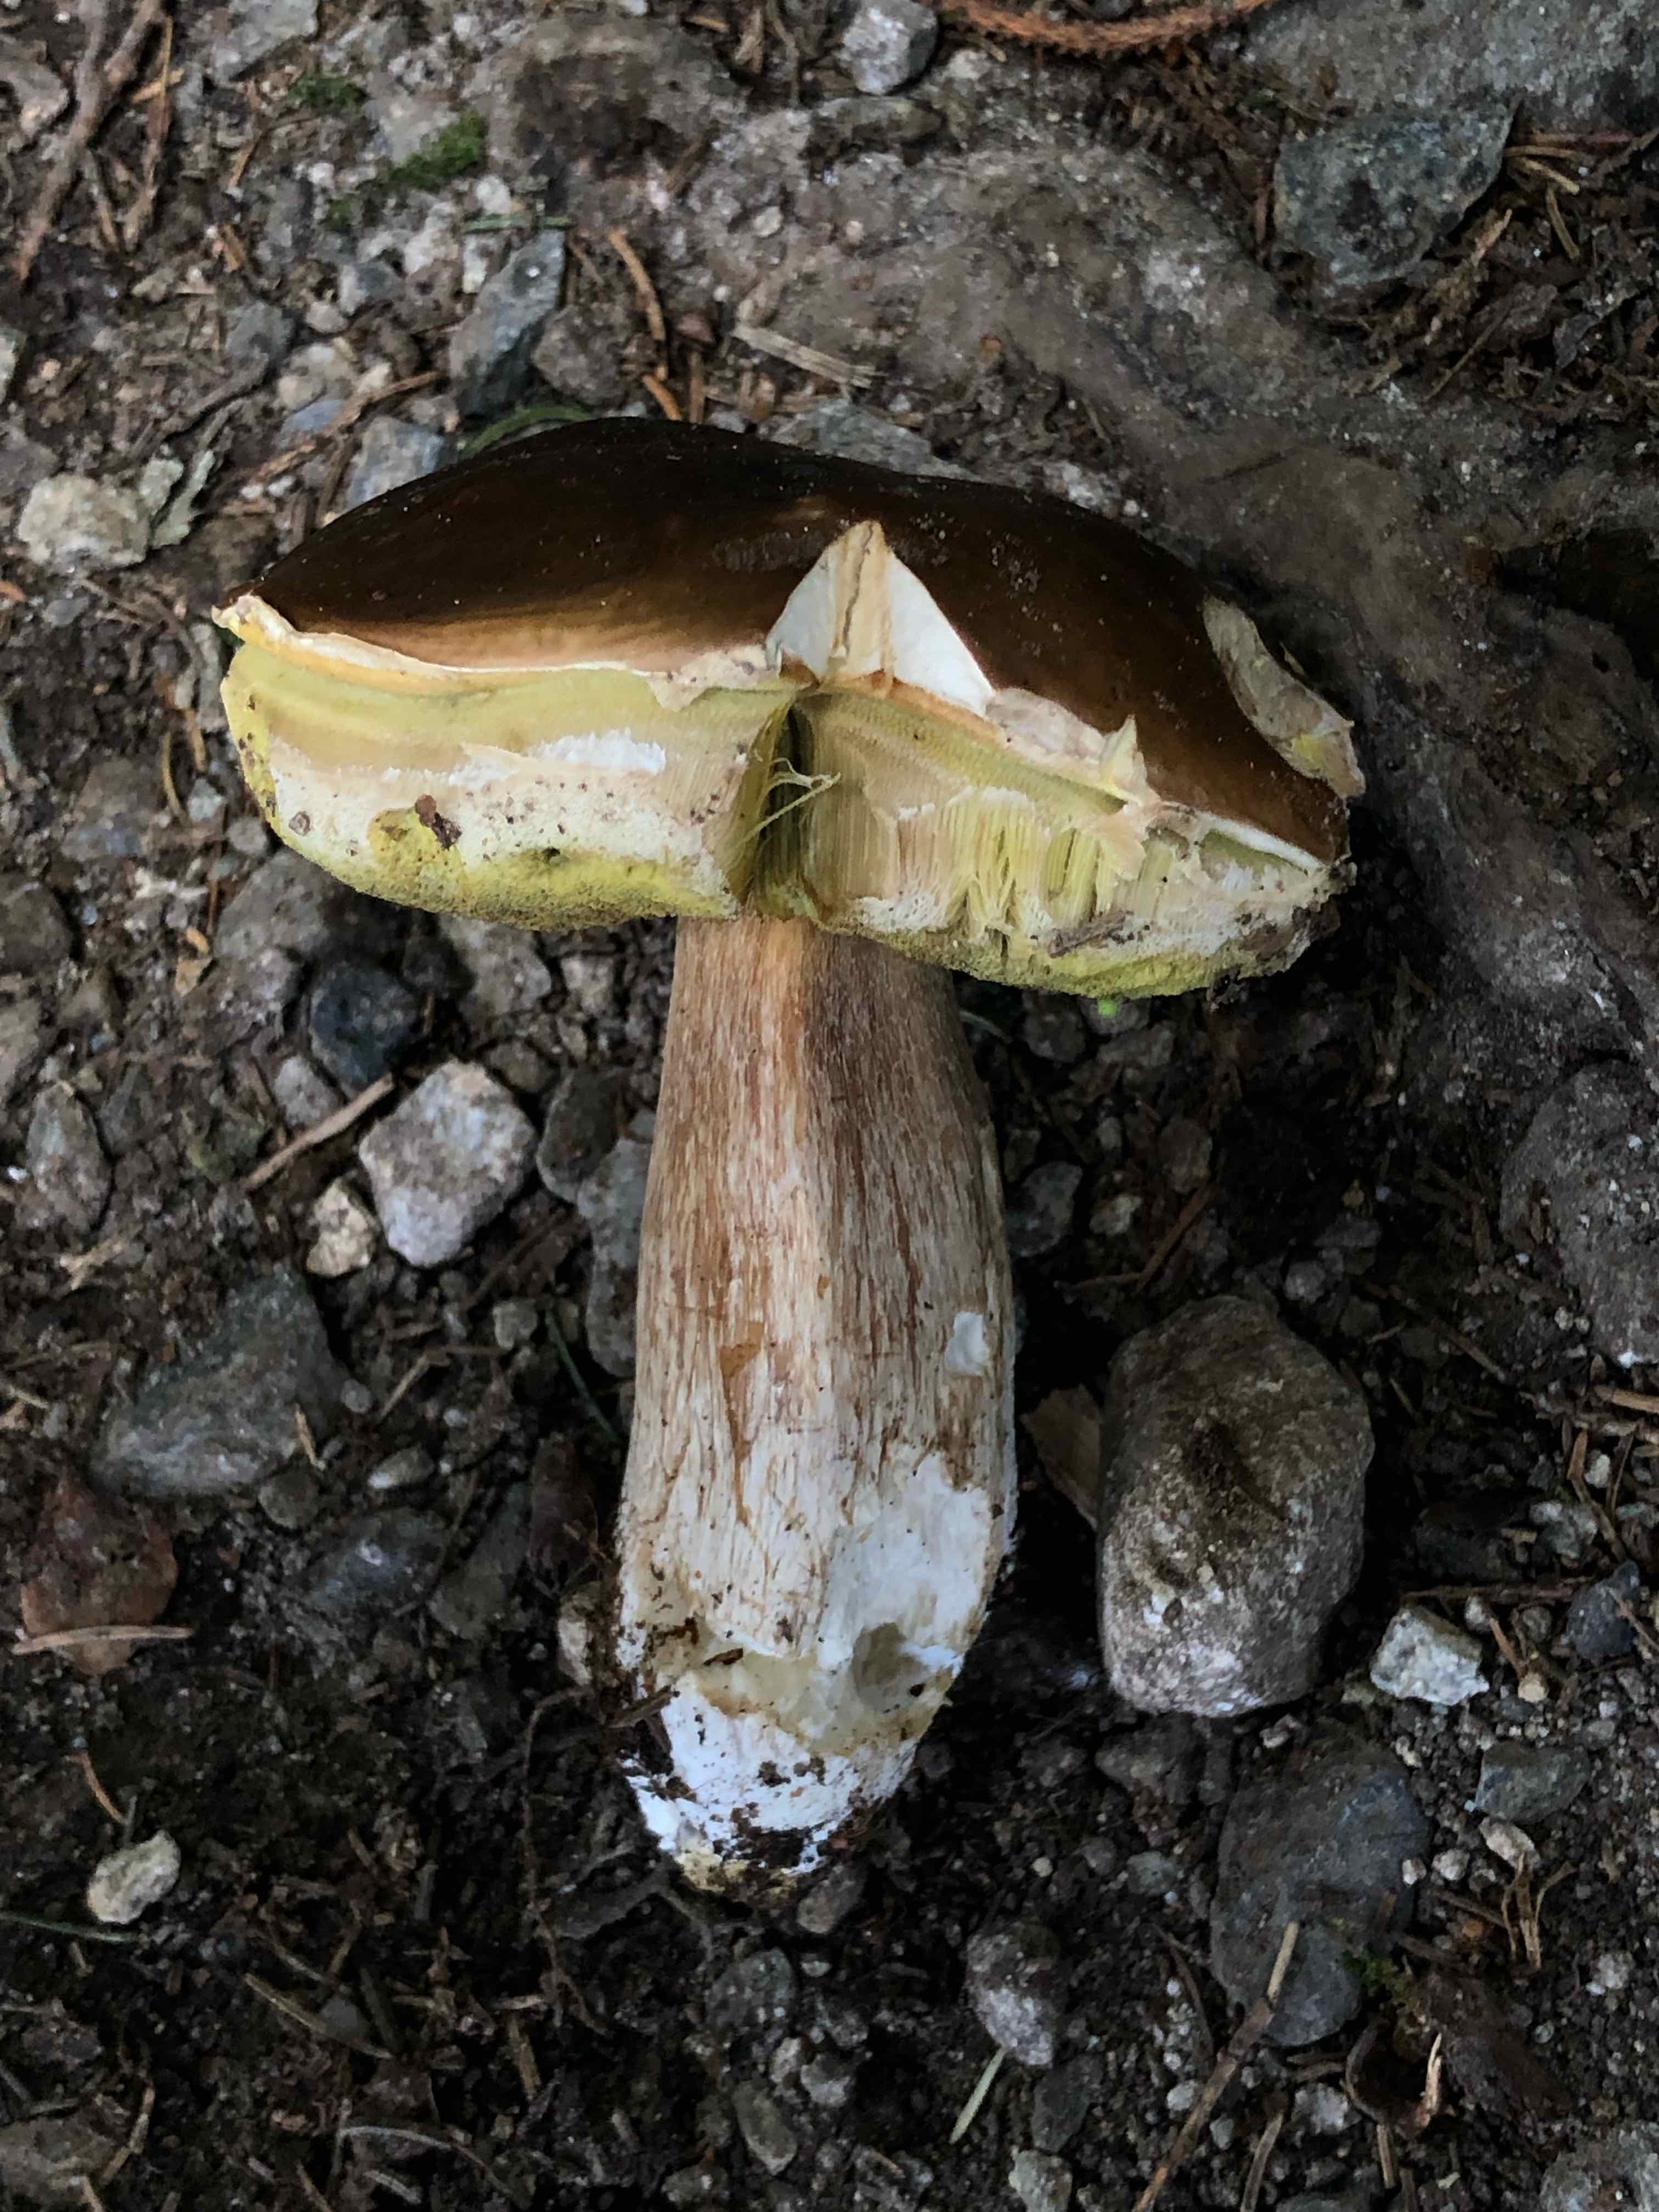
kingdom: Fungi
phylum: Basidiomycota
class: Agaricomycetes
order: Boletales
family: Boletaceae
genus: Boletus
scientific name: Boletus edulis
